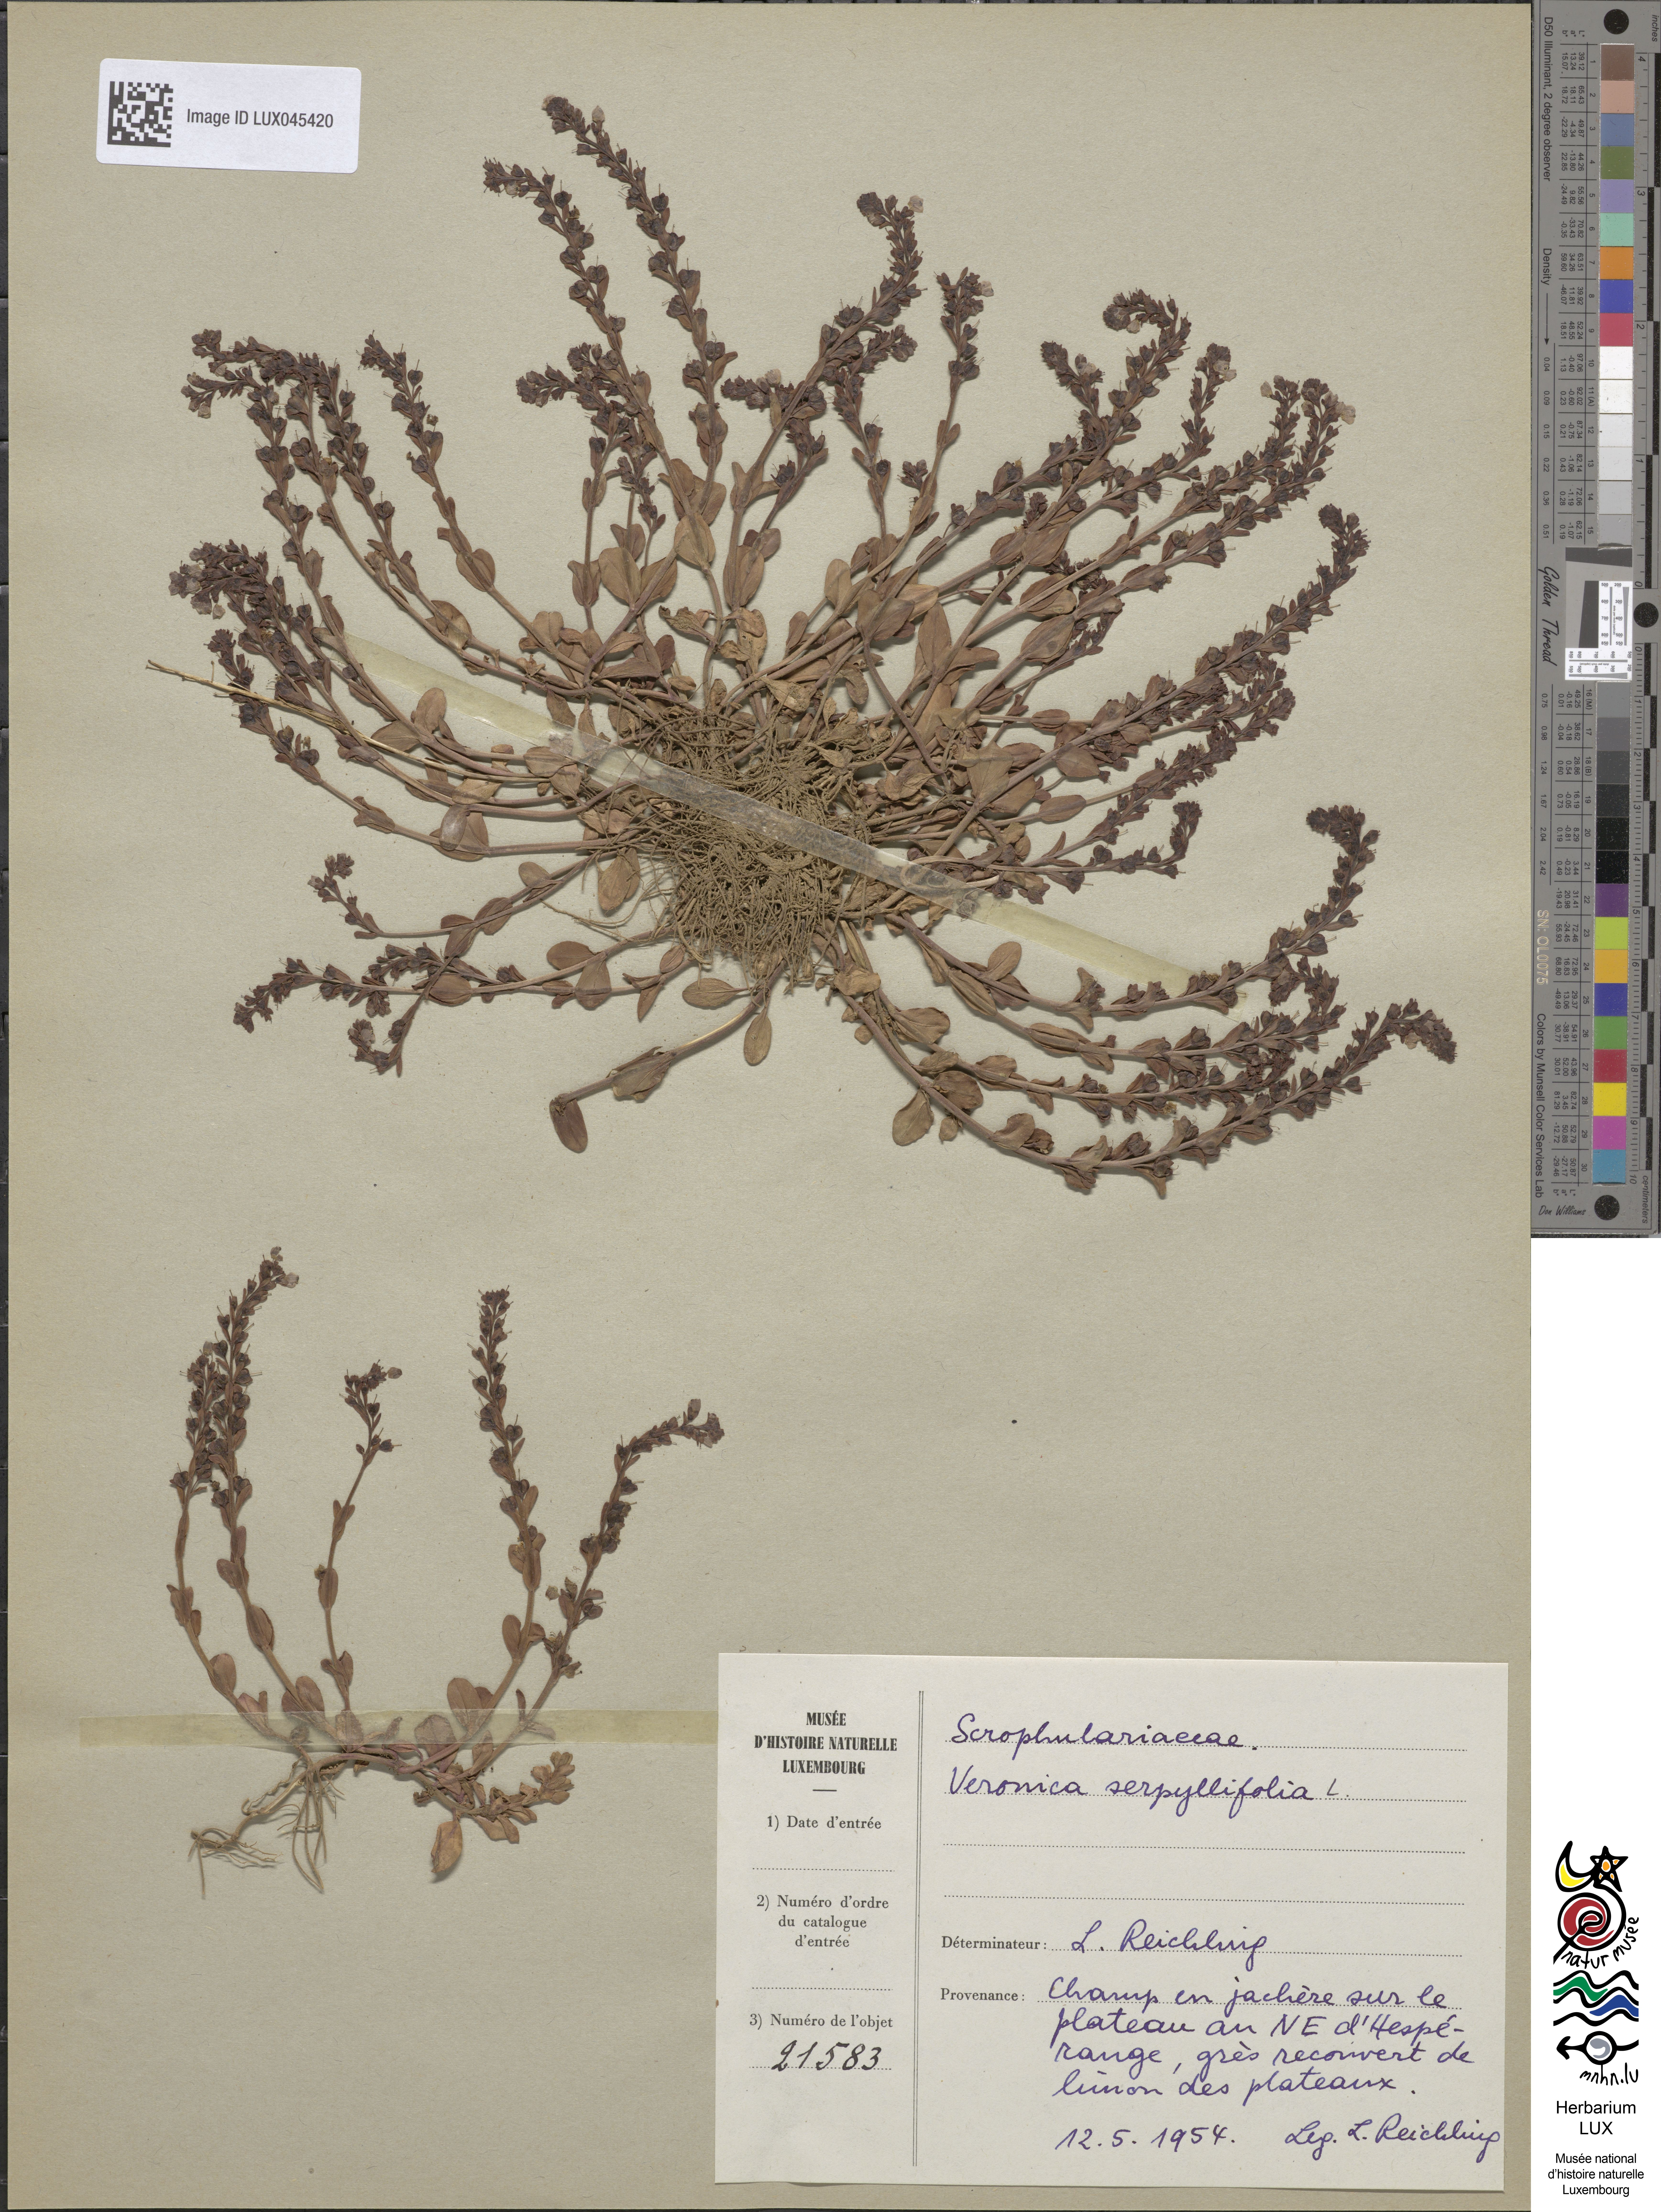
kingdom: Plantae
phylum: Tracheophyta
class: Magnoliopsida
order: Lamiales
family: Plantaginaceae
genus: Veronica
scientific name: Veronica serpyllifolia
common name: Thyme-leaved speedwell
